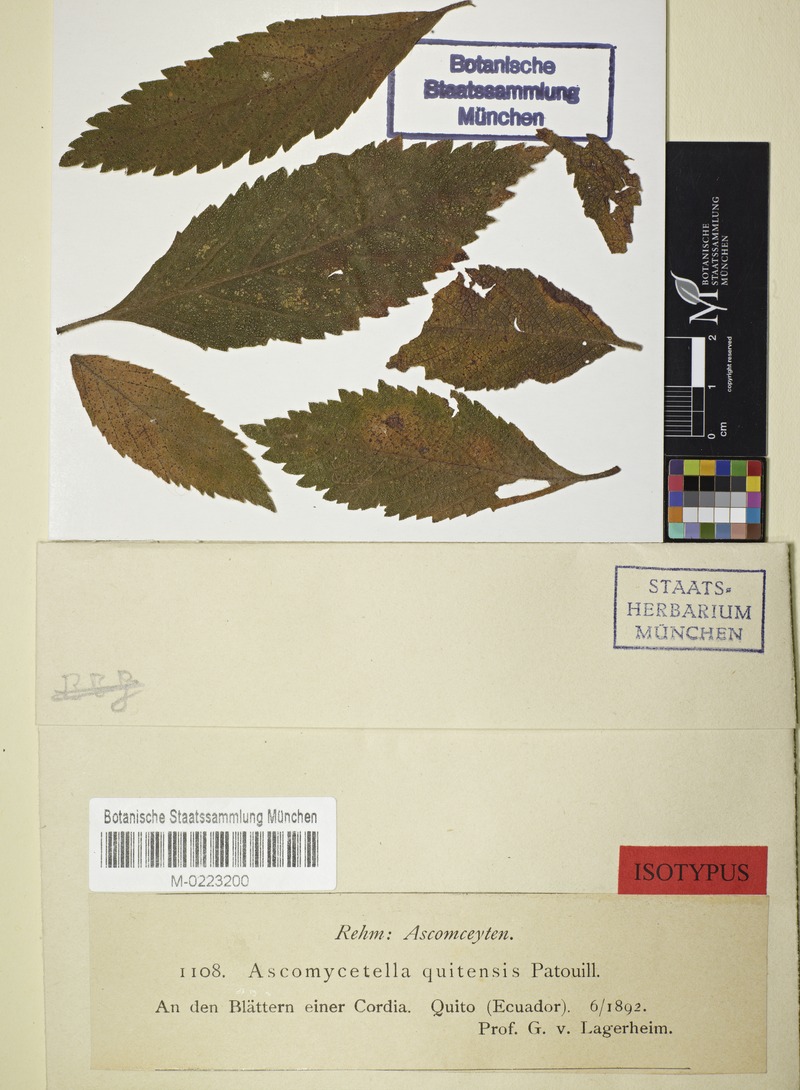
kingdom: Fungi
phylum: Ascomycota
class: Dothideomycetes
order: Mycosphaerellales
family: Schizothyriaceae
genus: Henningsiella
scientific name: Henningsiella quitensis
